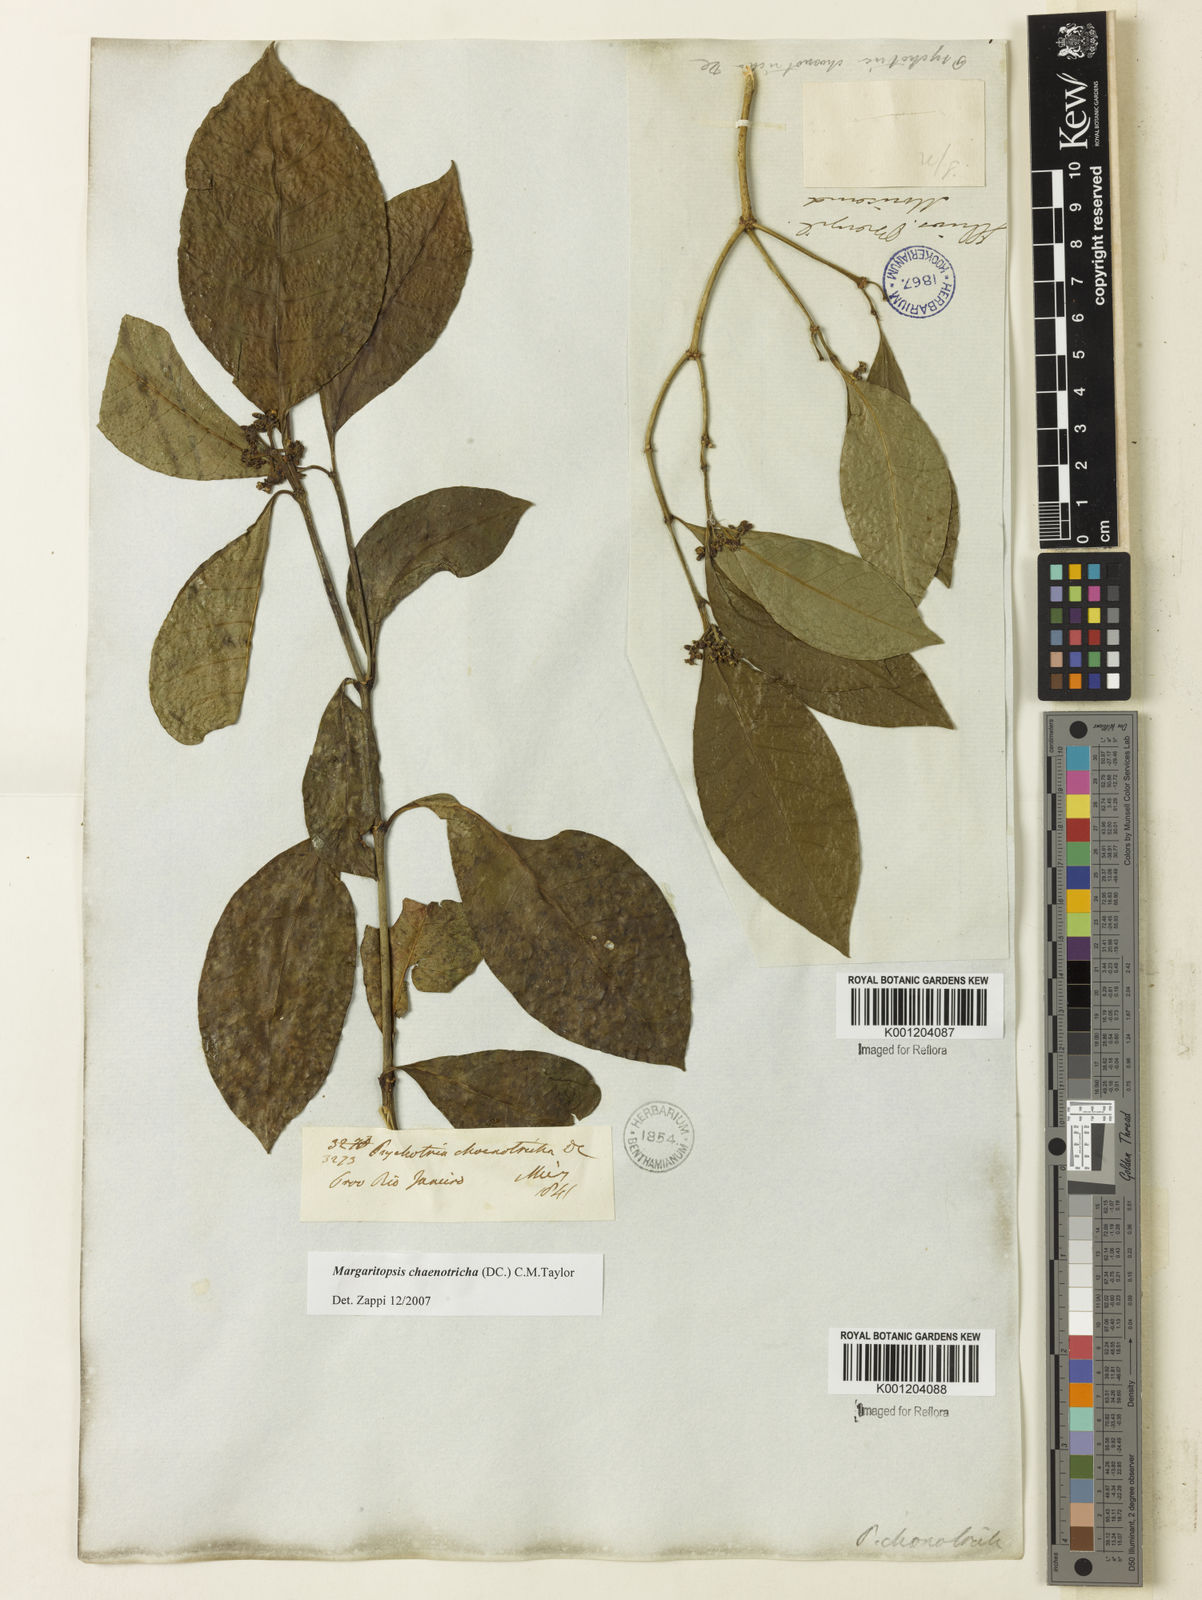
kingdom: Plantae
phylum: Tracheophyta
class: Magnoliopsida
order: Gentianales
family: Rubiaceae
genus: Eumachia
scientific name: Eumachia chaenotricha
